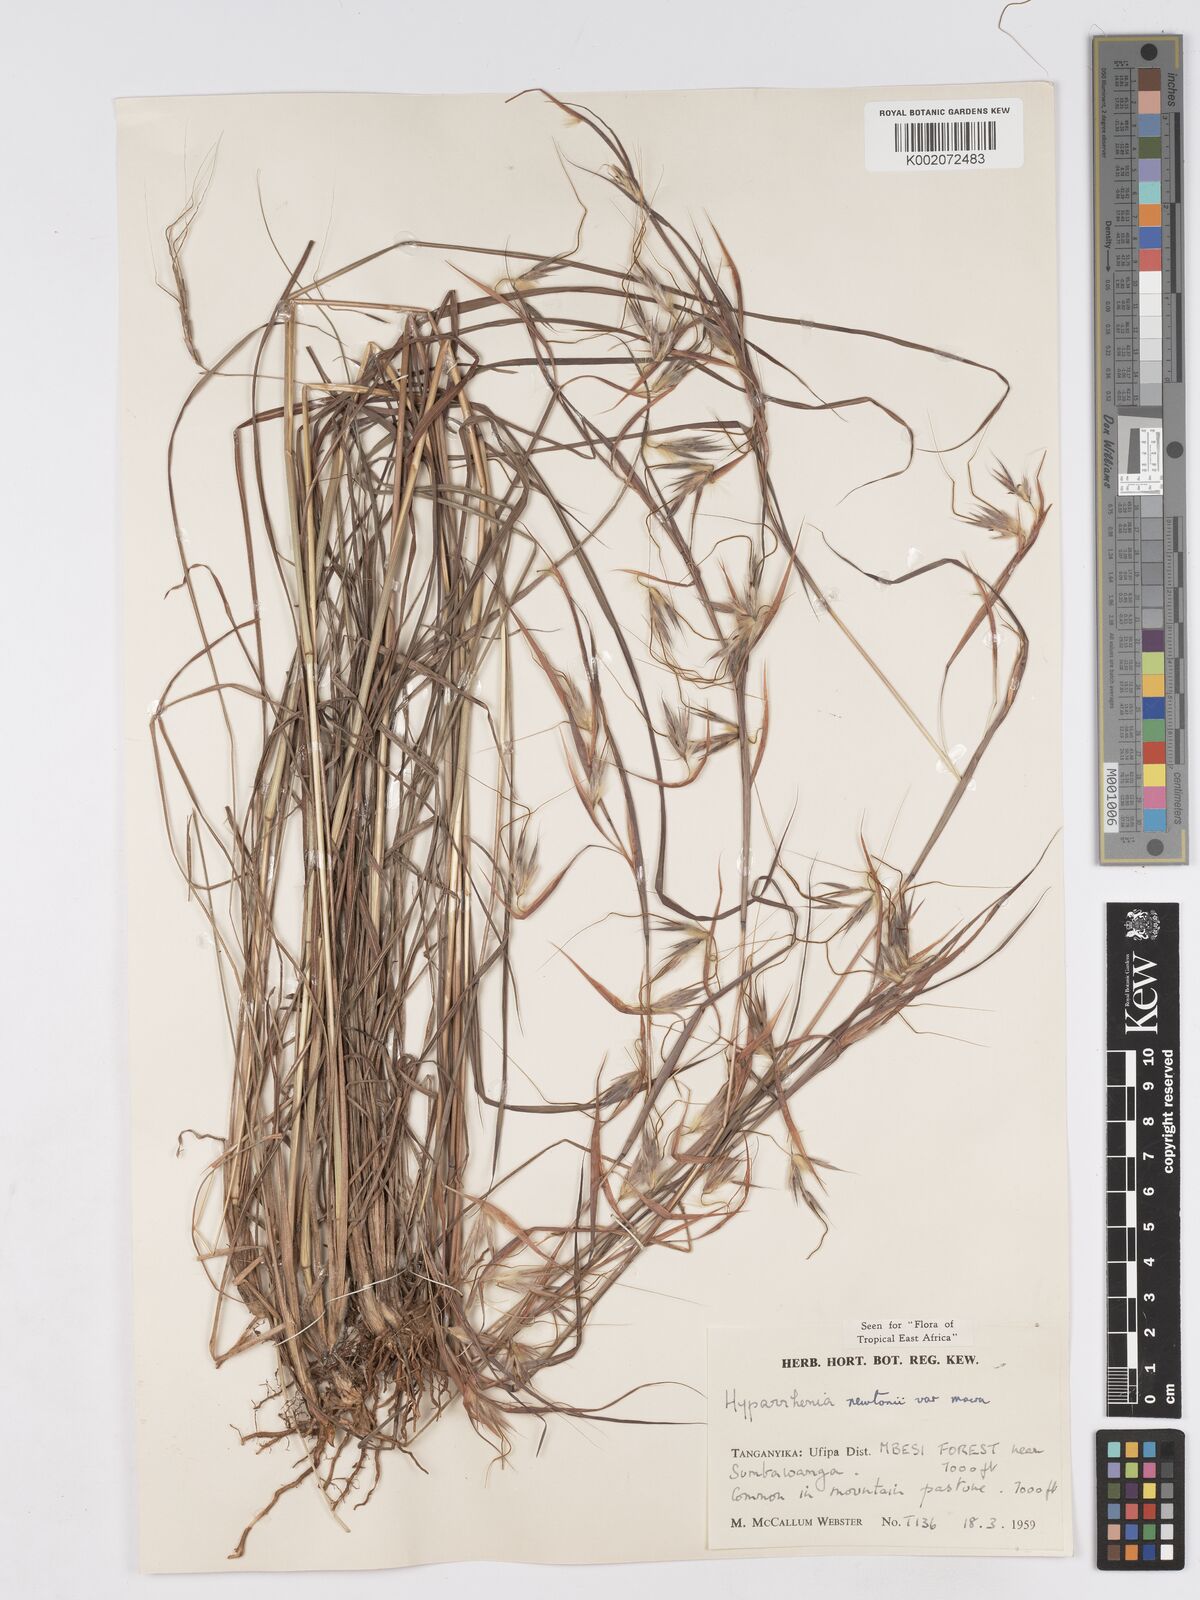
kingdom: Plantae
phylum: Tracheophyta
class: Liliopsida
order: Poales
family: Poaceae
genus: Hyparrhenia
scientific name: Hyparrhenia newtonii
